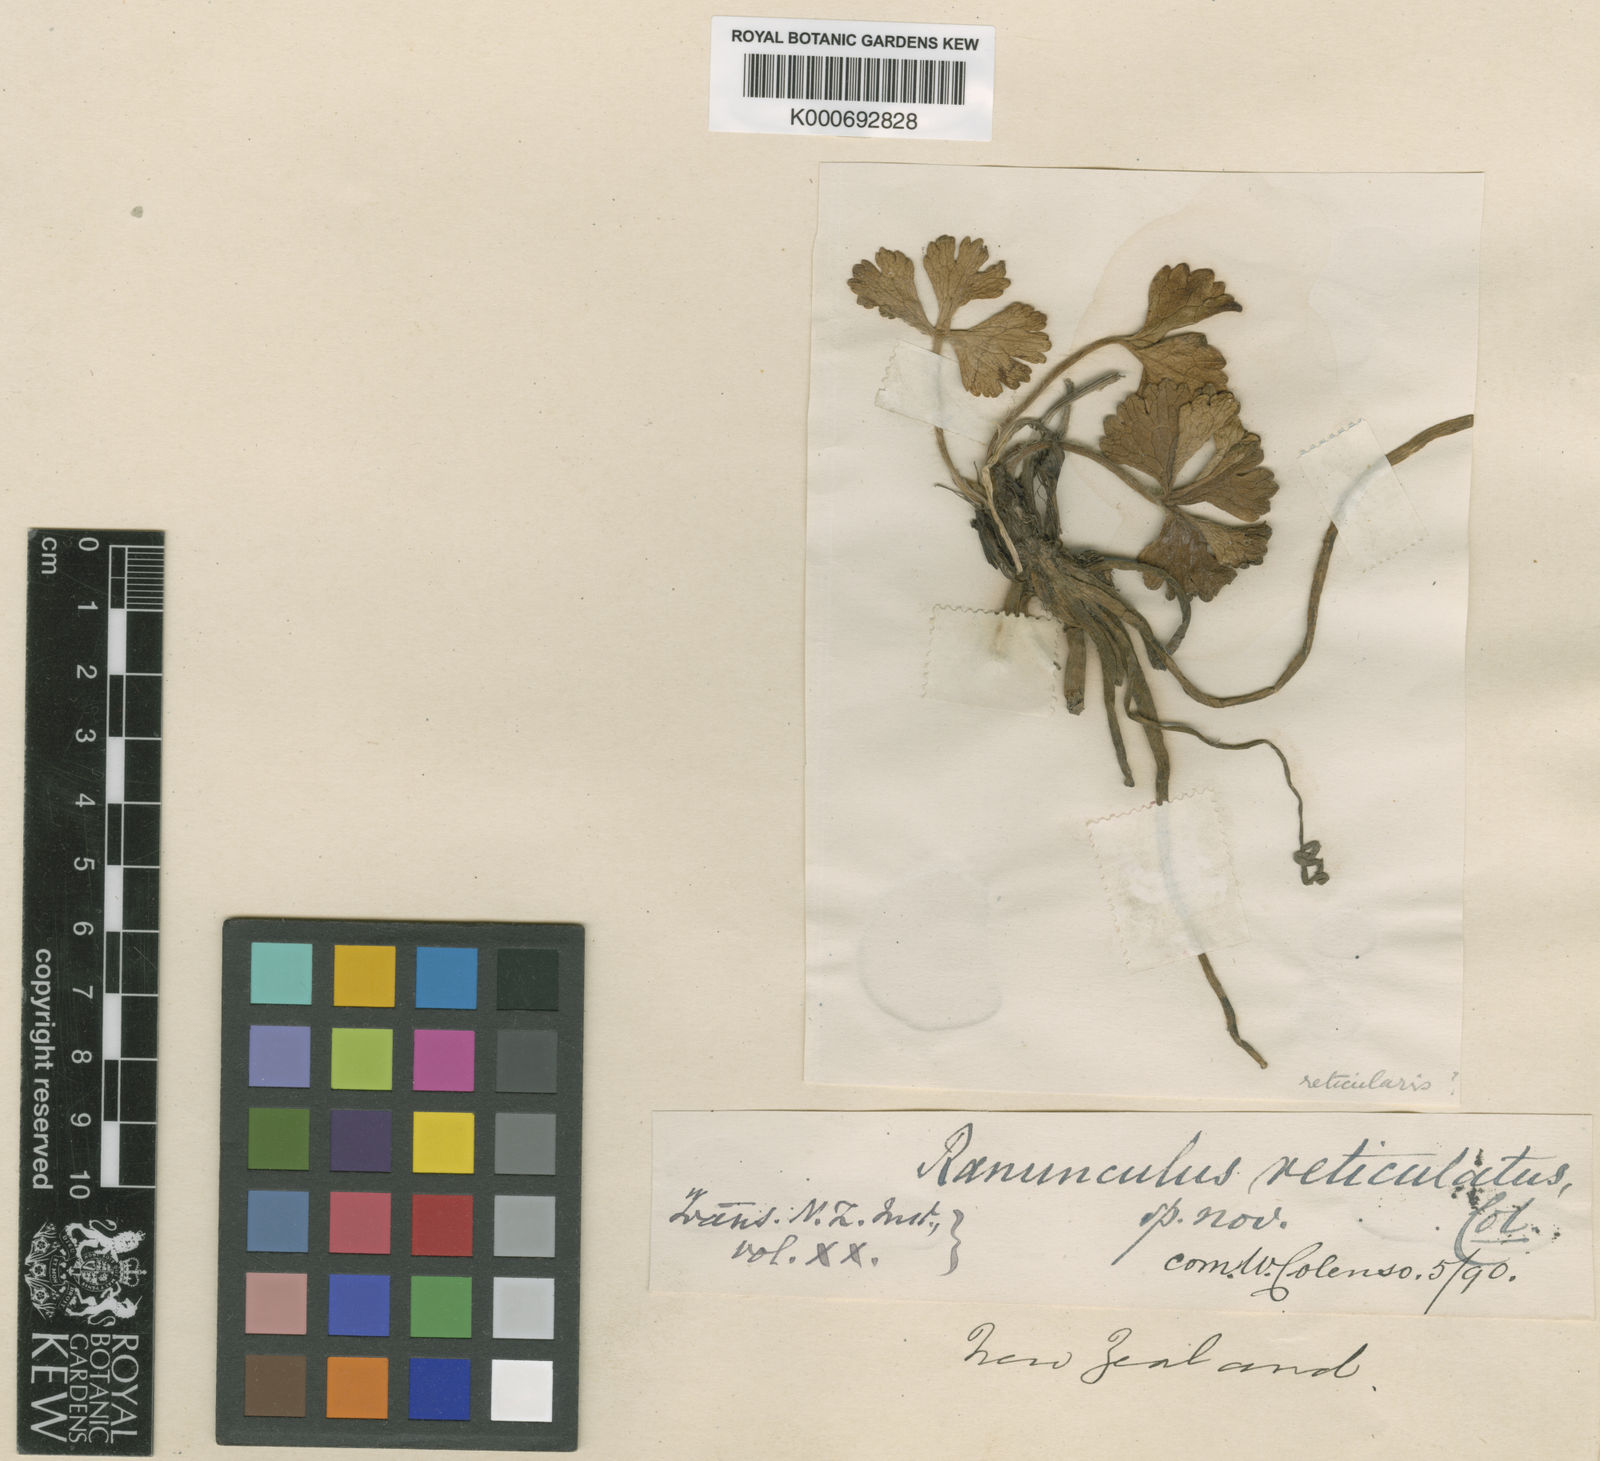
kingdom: Plantae
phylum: Tracheophyta
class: Magnoliopsida
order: Ranunculales
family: Ranunculaceae
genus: Ranunculus
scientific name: Ranunculus nivicola
